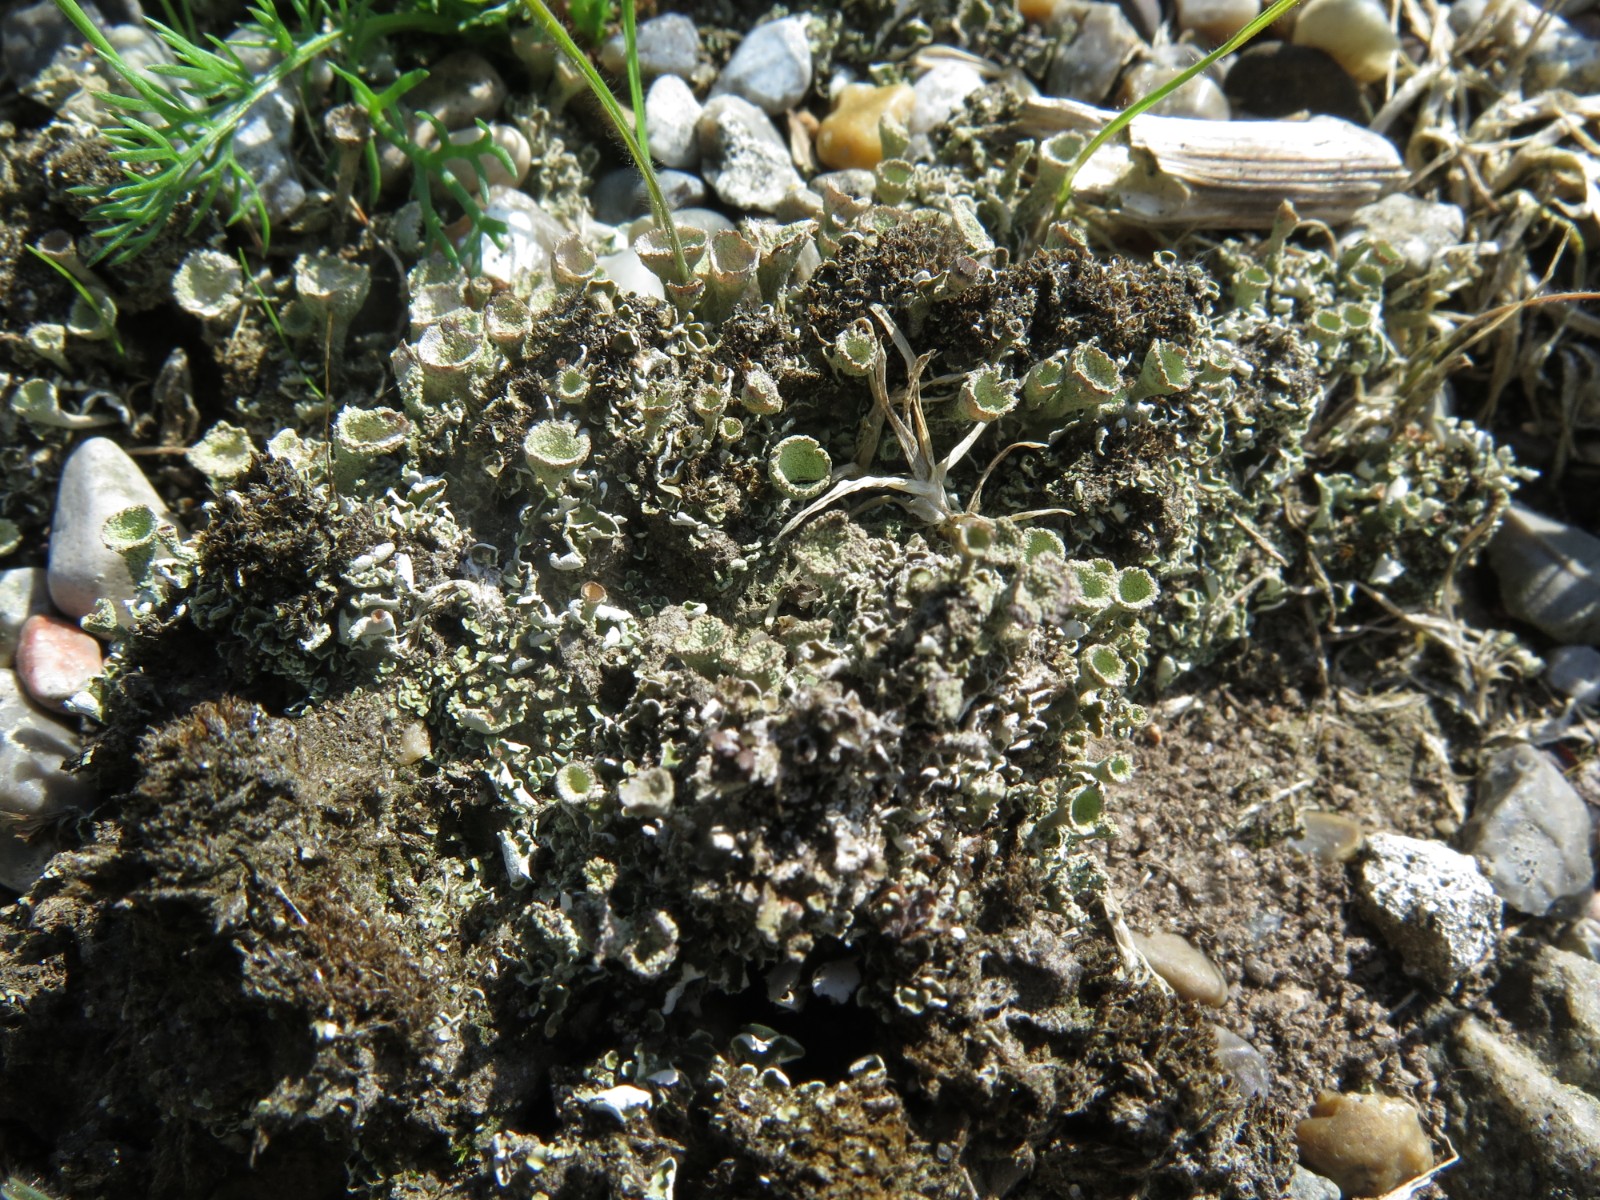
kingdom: Fungi
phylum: Ascomycota
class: Lecanoromycetes
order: Lecanorales
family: Cladoniaceae
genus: Cladonia
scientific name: Cladonia
